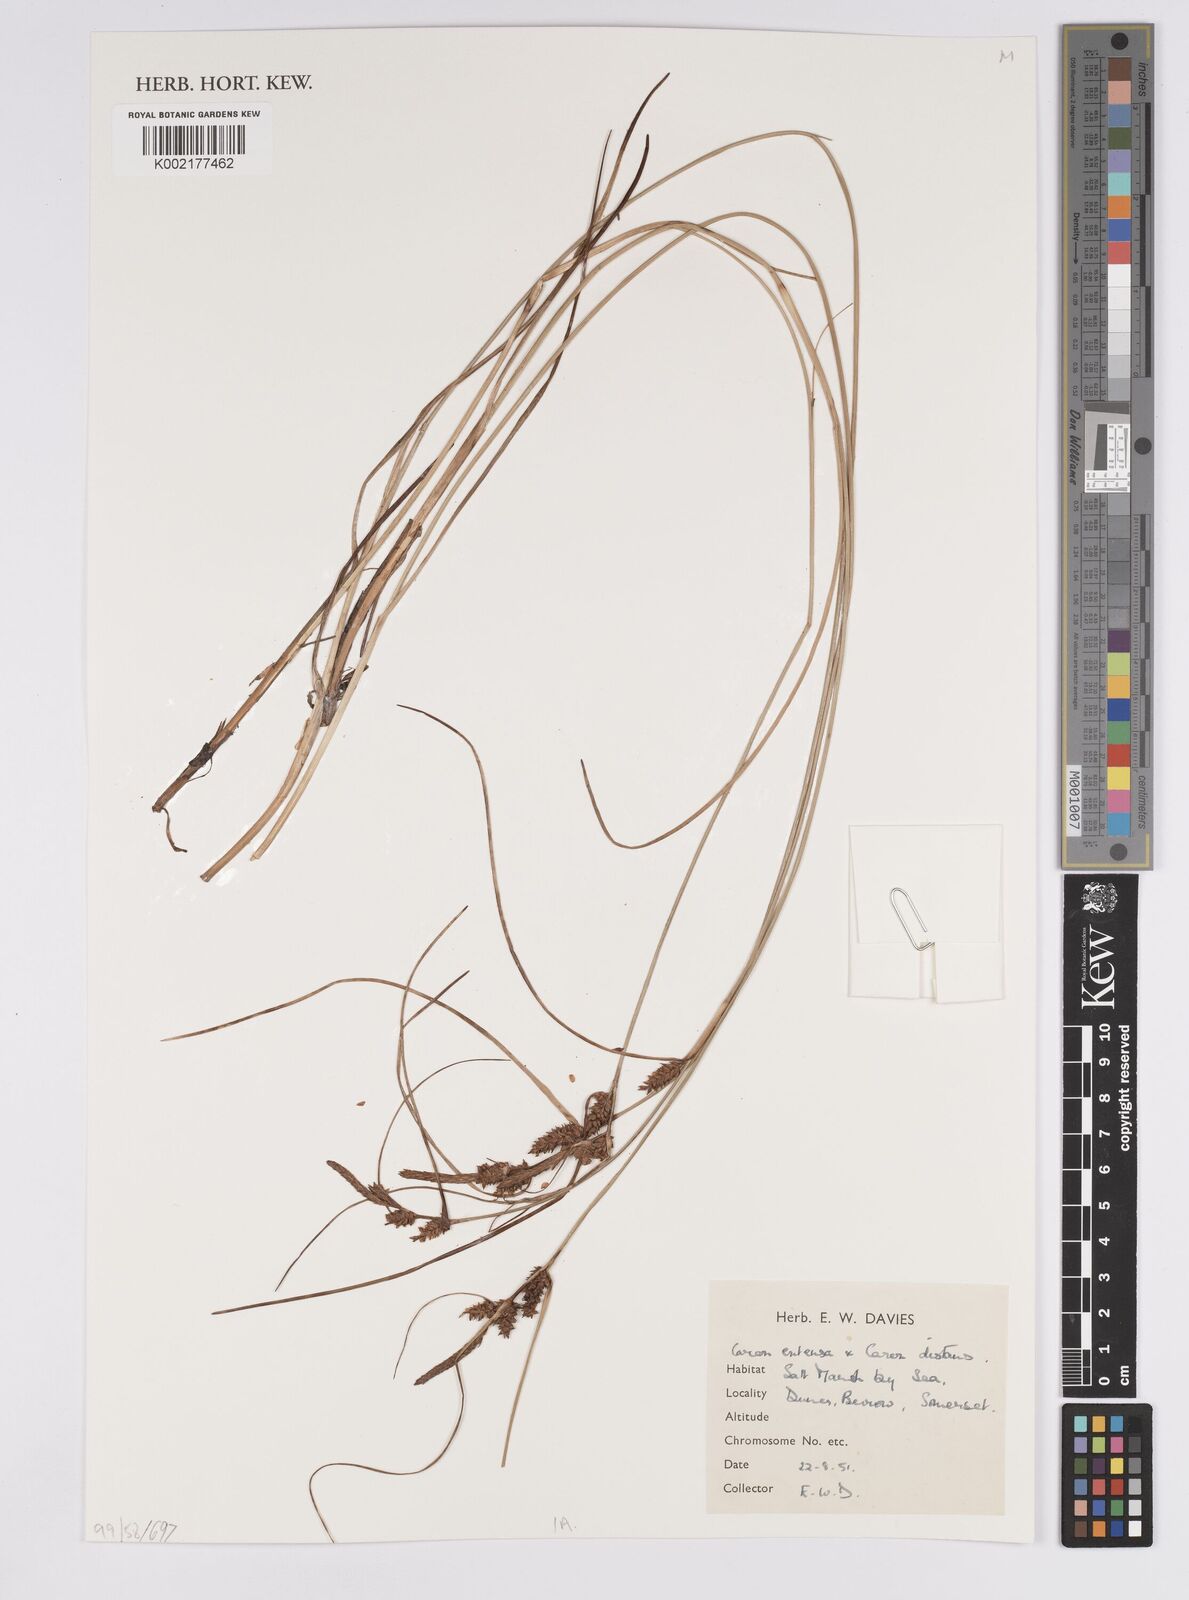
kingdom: Plantae
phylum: Tracheophyta
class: Liliopsida
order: Poales
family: Cyperaceae
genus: Carex
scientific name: Carex extensa
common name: Long-bracted sedge
